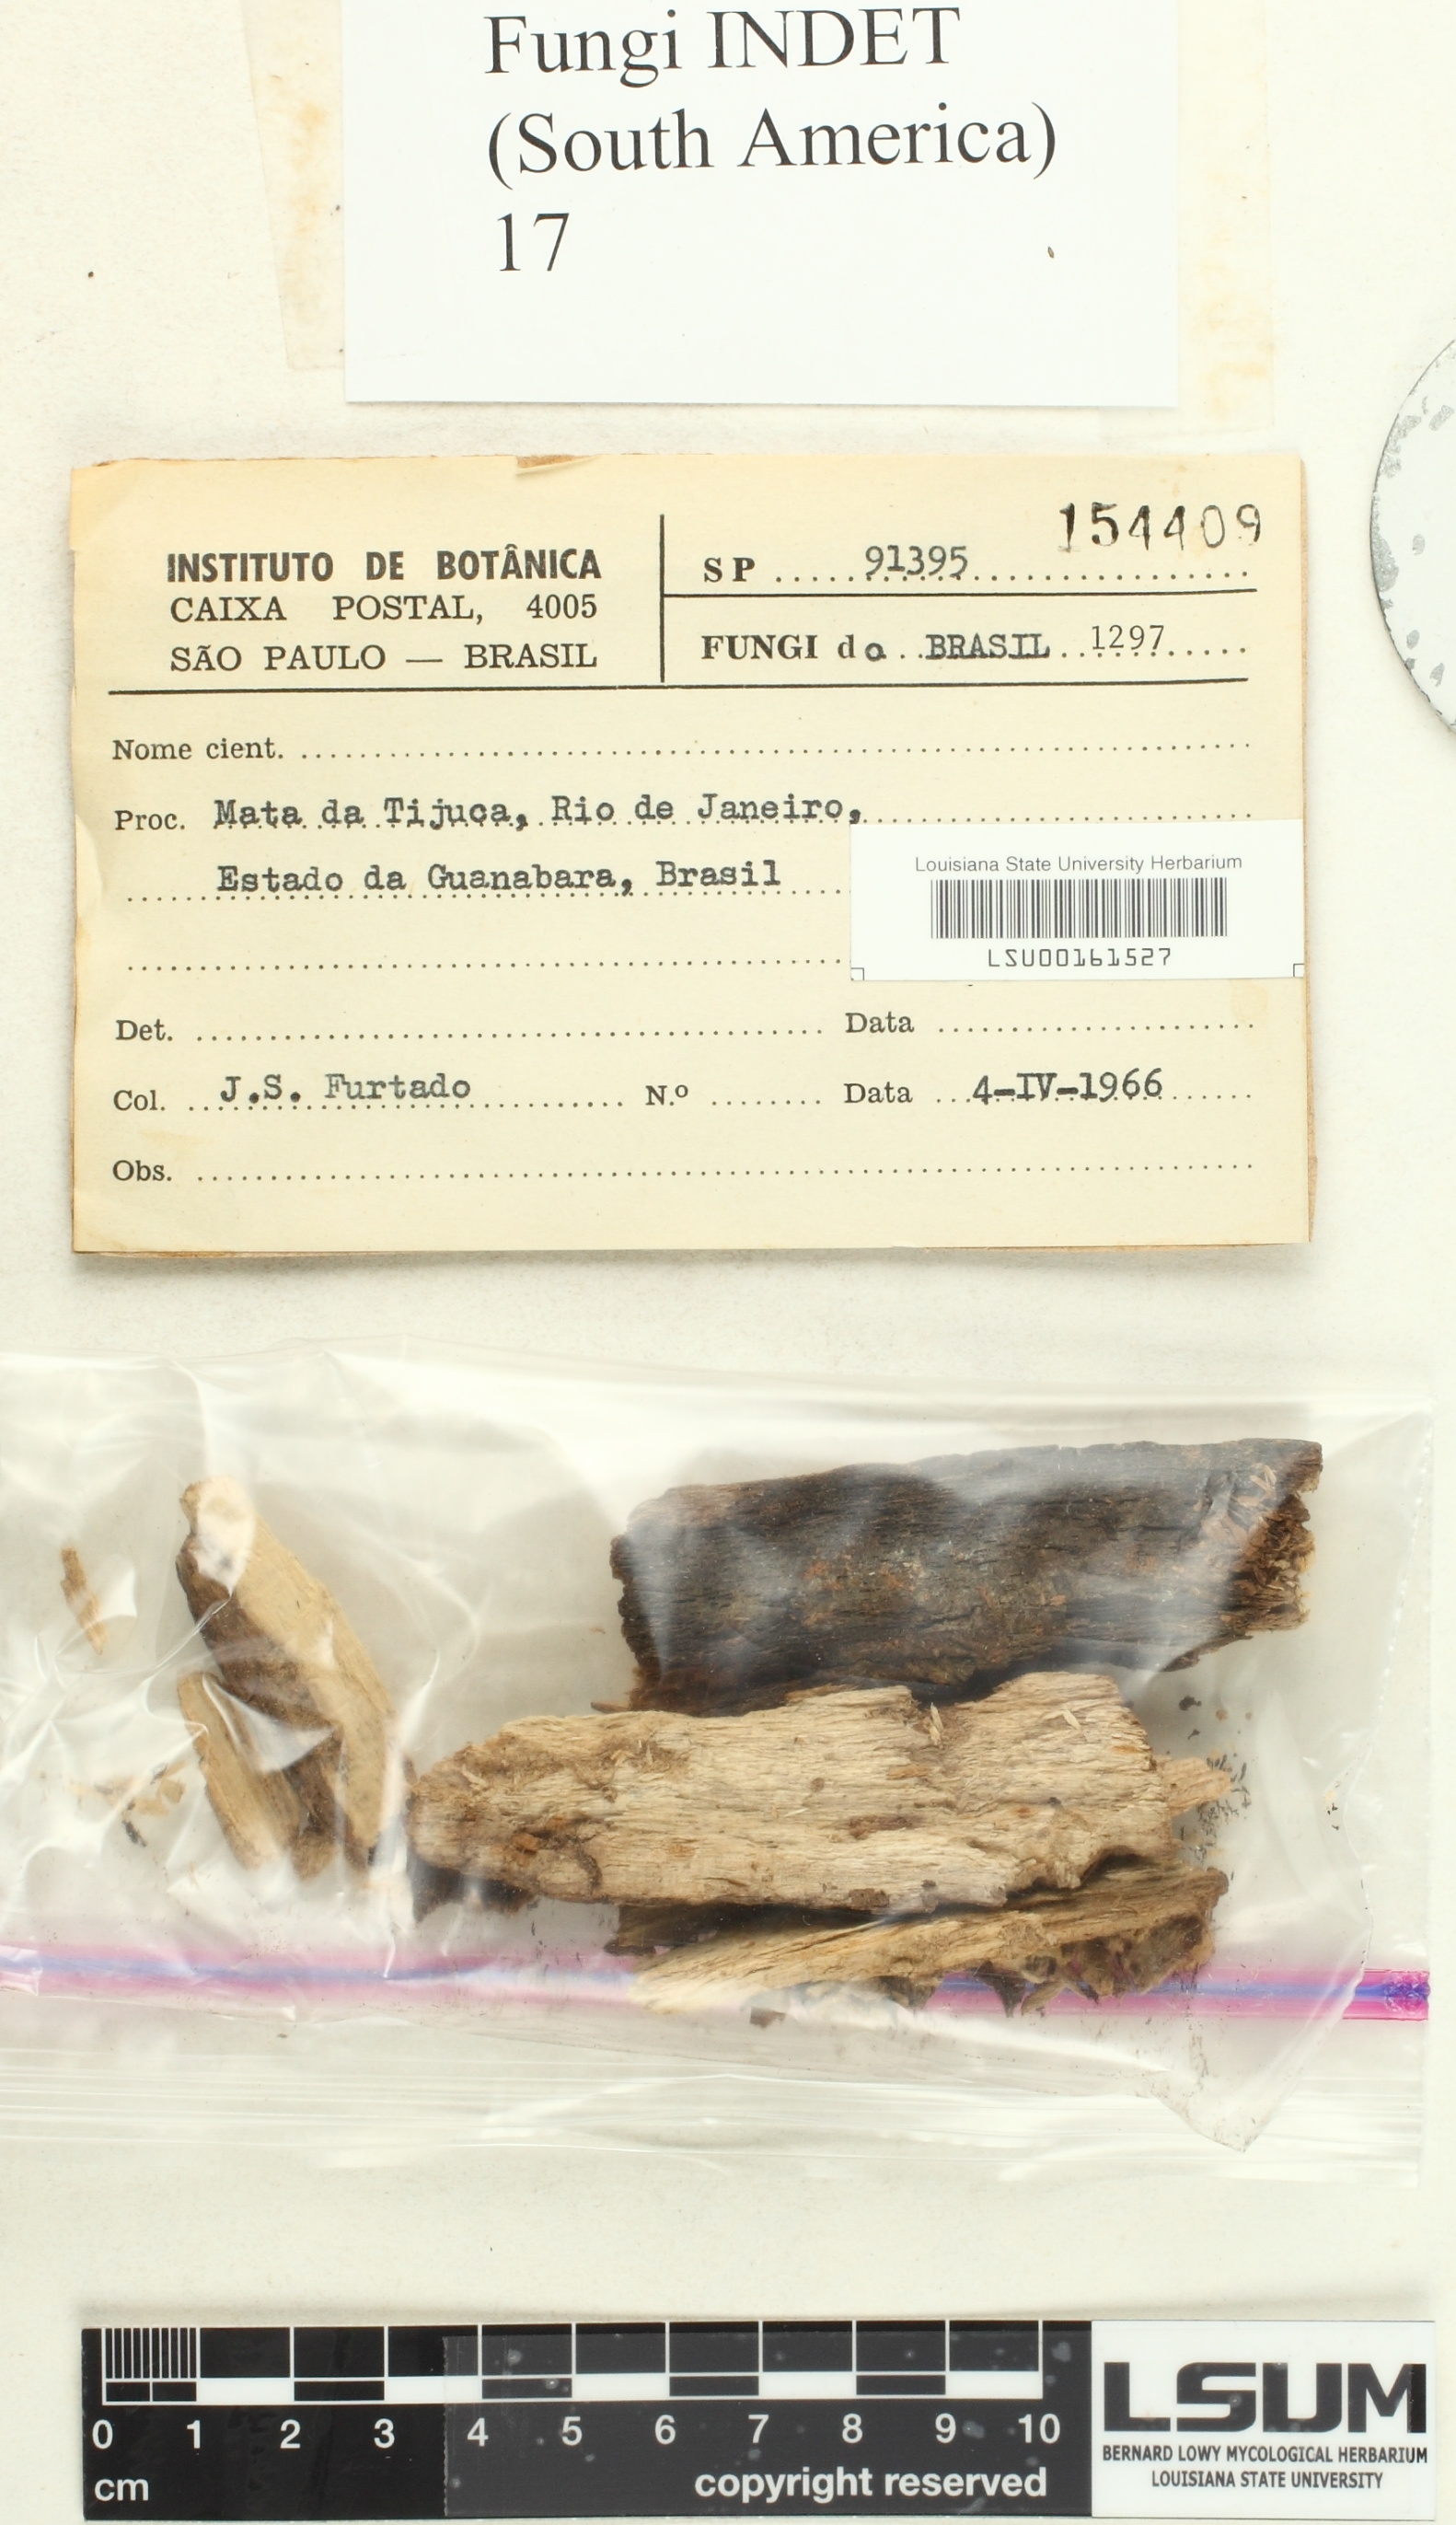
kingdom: Fungi
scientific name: Fungi
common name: Fungi
